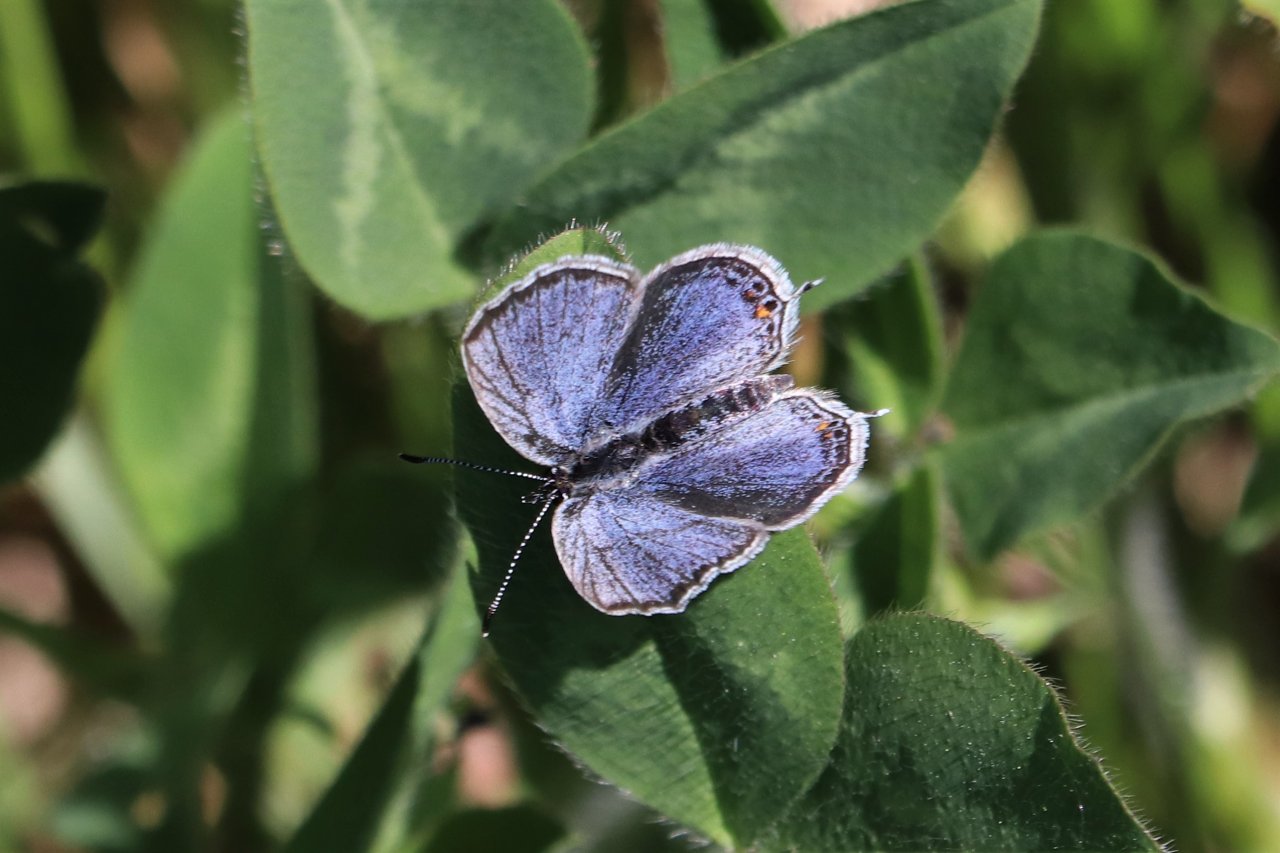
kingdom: Animalia
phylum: Arthropoda
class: Insecta
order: Lepidoptera
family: Lycaenidae
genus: Elkalyce
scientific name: Elkalyce comyntas
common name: Eastern Tailed-Blue
